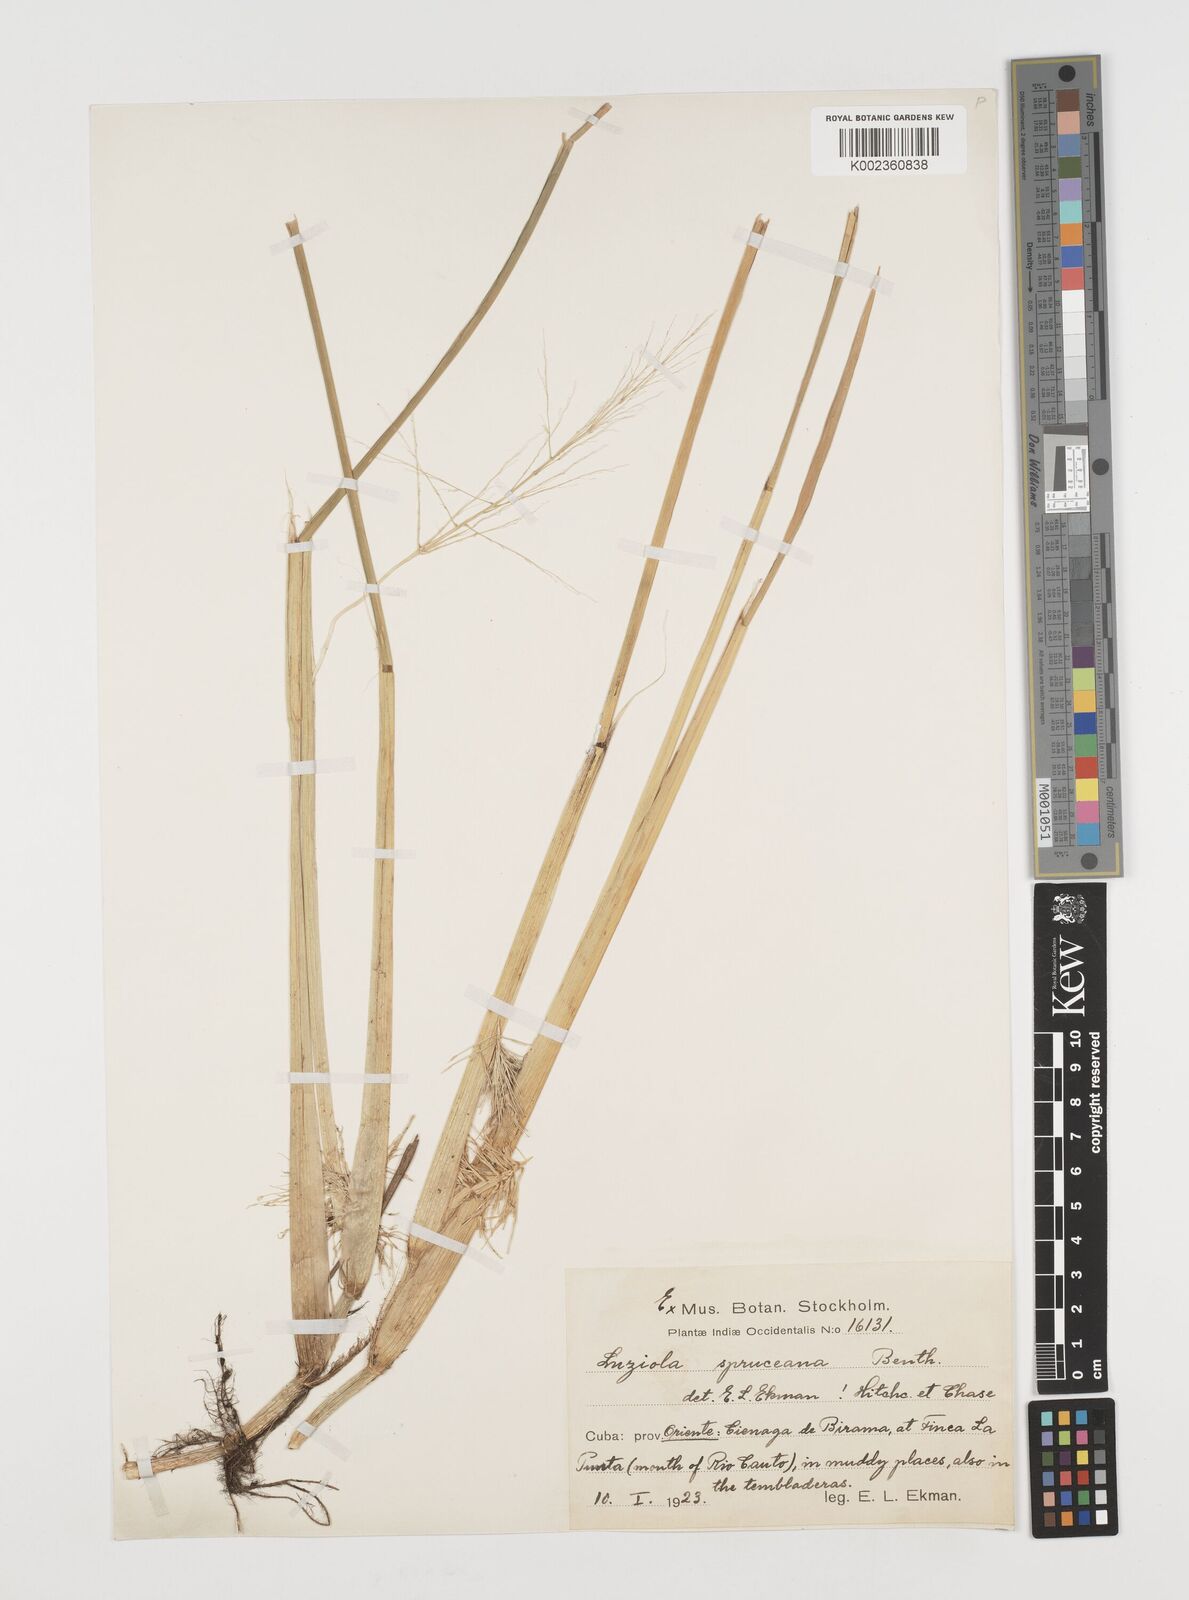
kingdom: Plantae
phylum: Tracheophyta
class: Liliopsida
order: Poales
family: Poaceae
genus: Luziola
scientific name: Luziola subintegra
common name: Large watergrass
